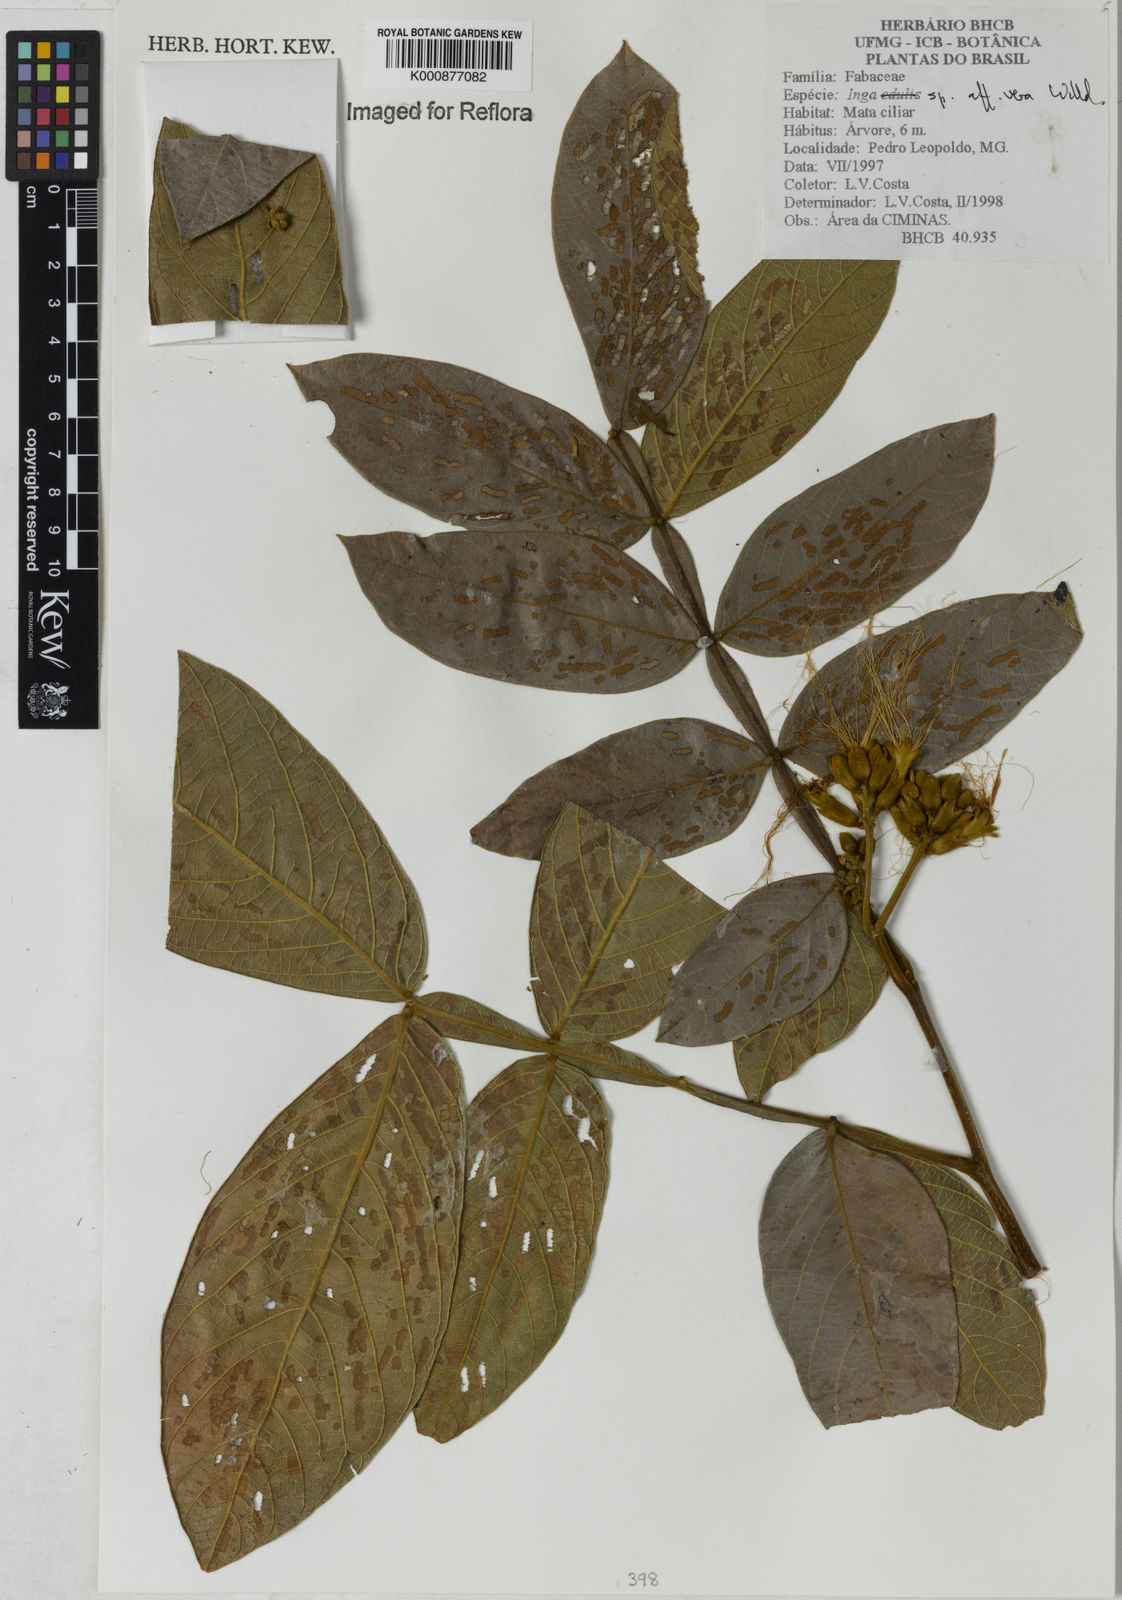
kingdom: Plantae
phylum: Tracheophyta
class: Magnoliopsida
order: Fabales
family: Fabaceae
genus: Inga
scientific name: Inga vera
